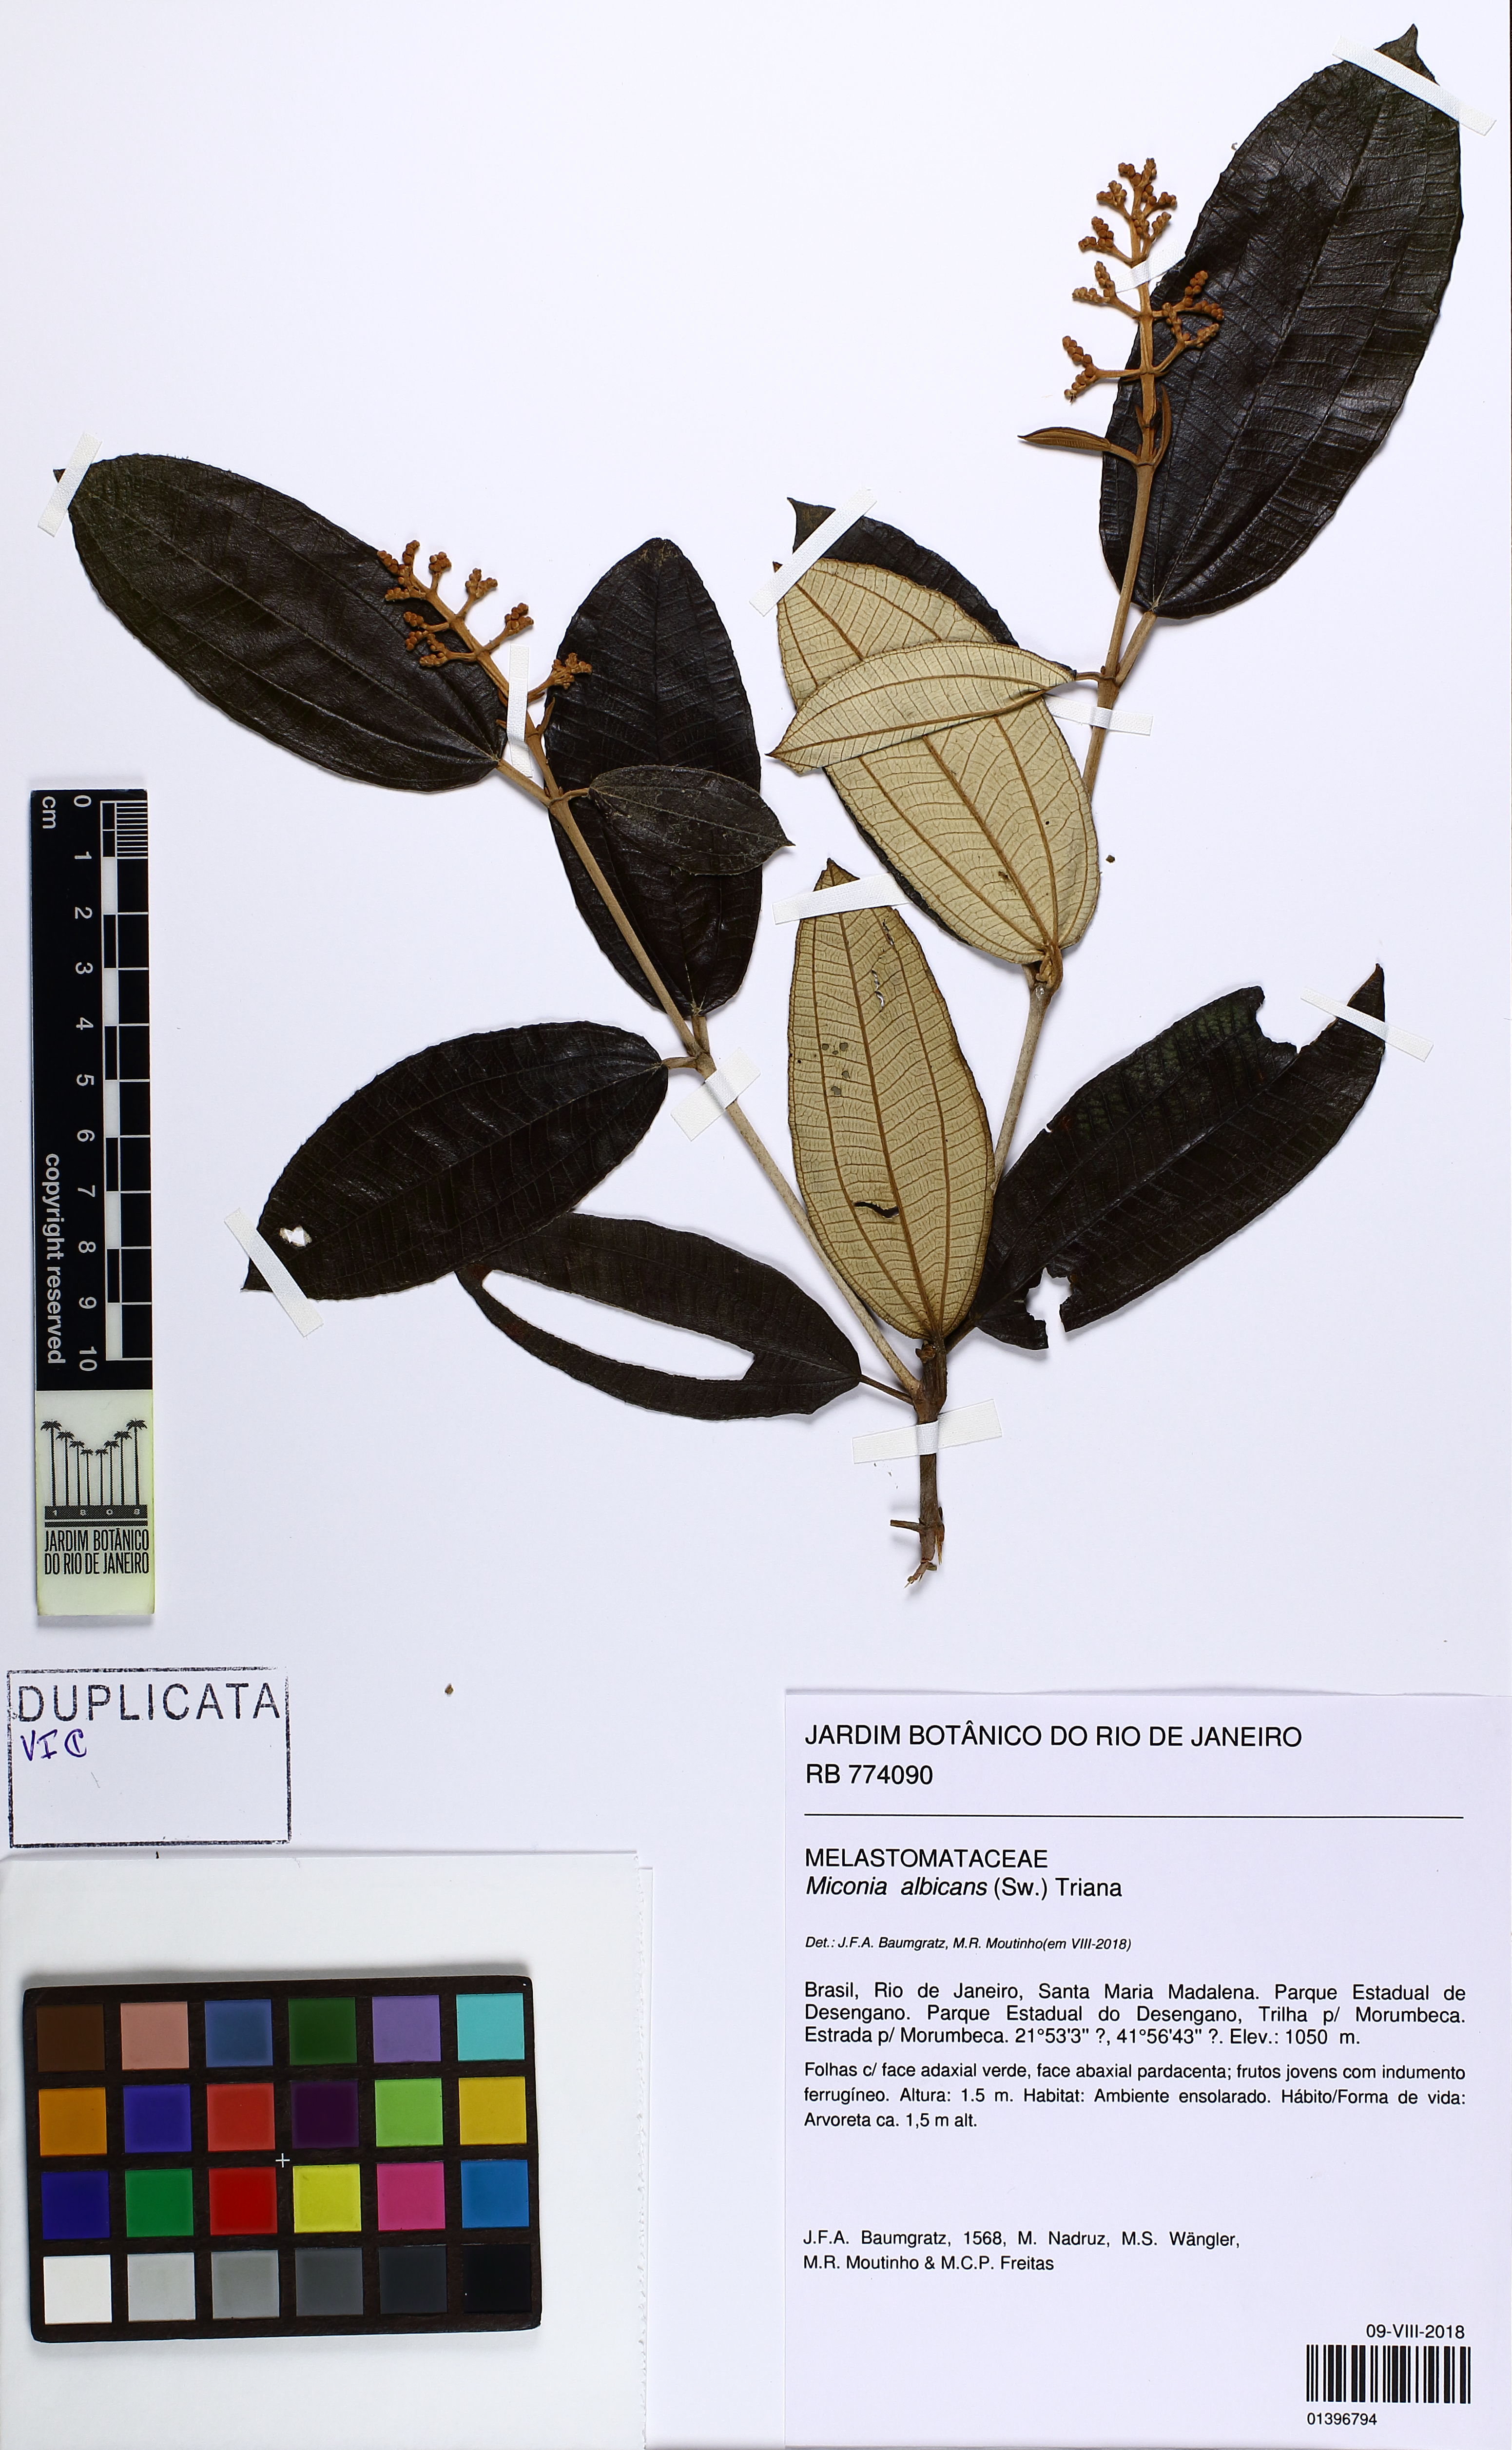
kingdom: Plantae
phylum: Tracheophyta
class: Magnoliopsida
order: Myrtales
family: Melastomataceae
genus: Miconia
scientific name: Miconia albicans
